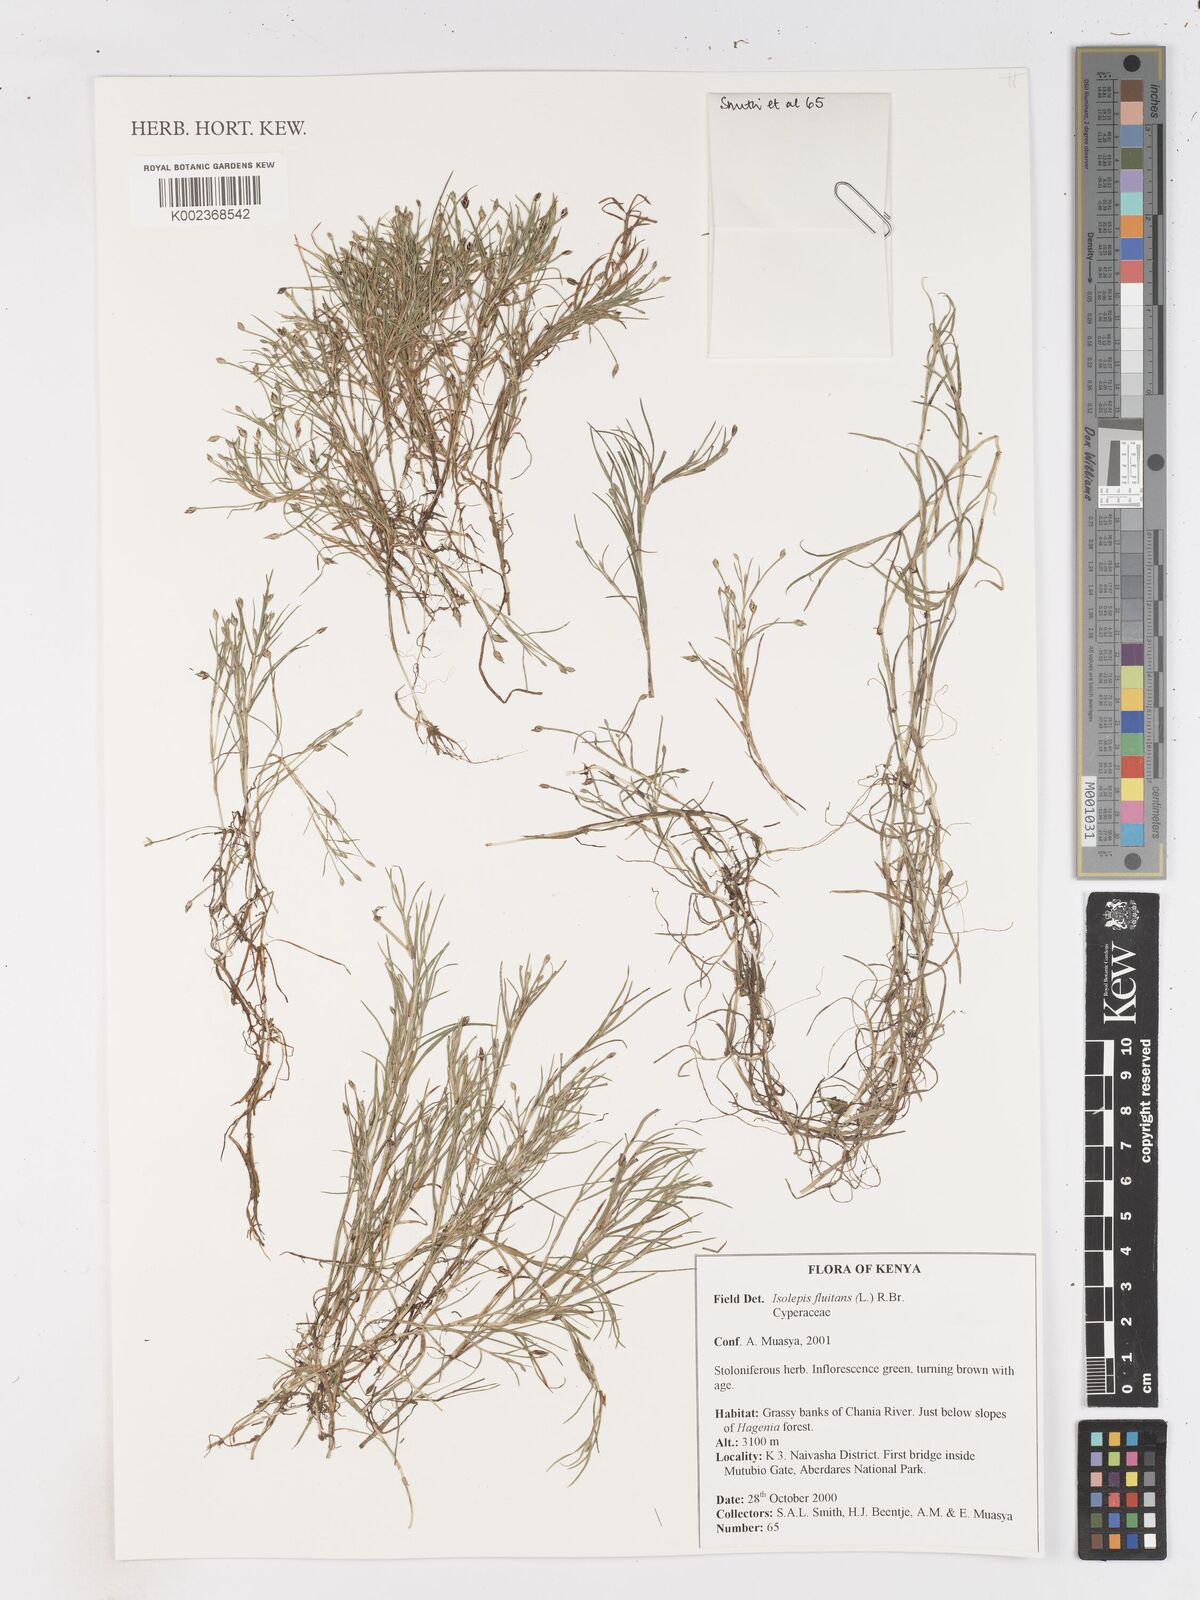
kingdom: Plantae
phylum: Tracheophyta
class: Liliopsida
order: Poales
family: Cyperaceae
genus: Isolepis
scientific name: Isolepis fluitans
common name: Floating club-rush
